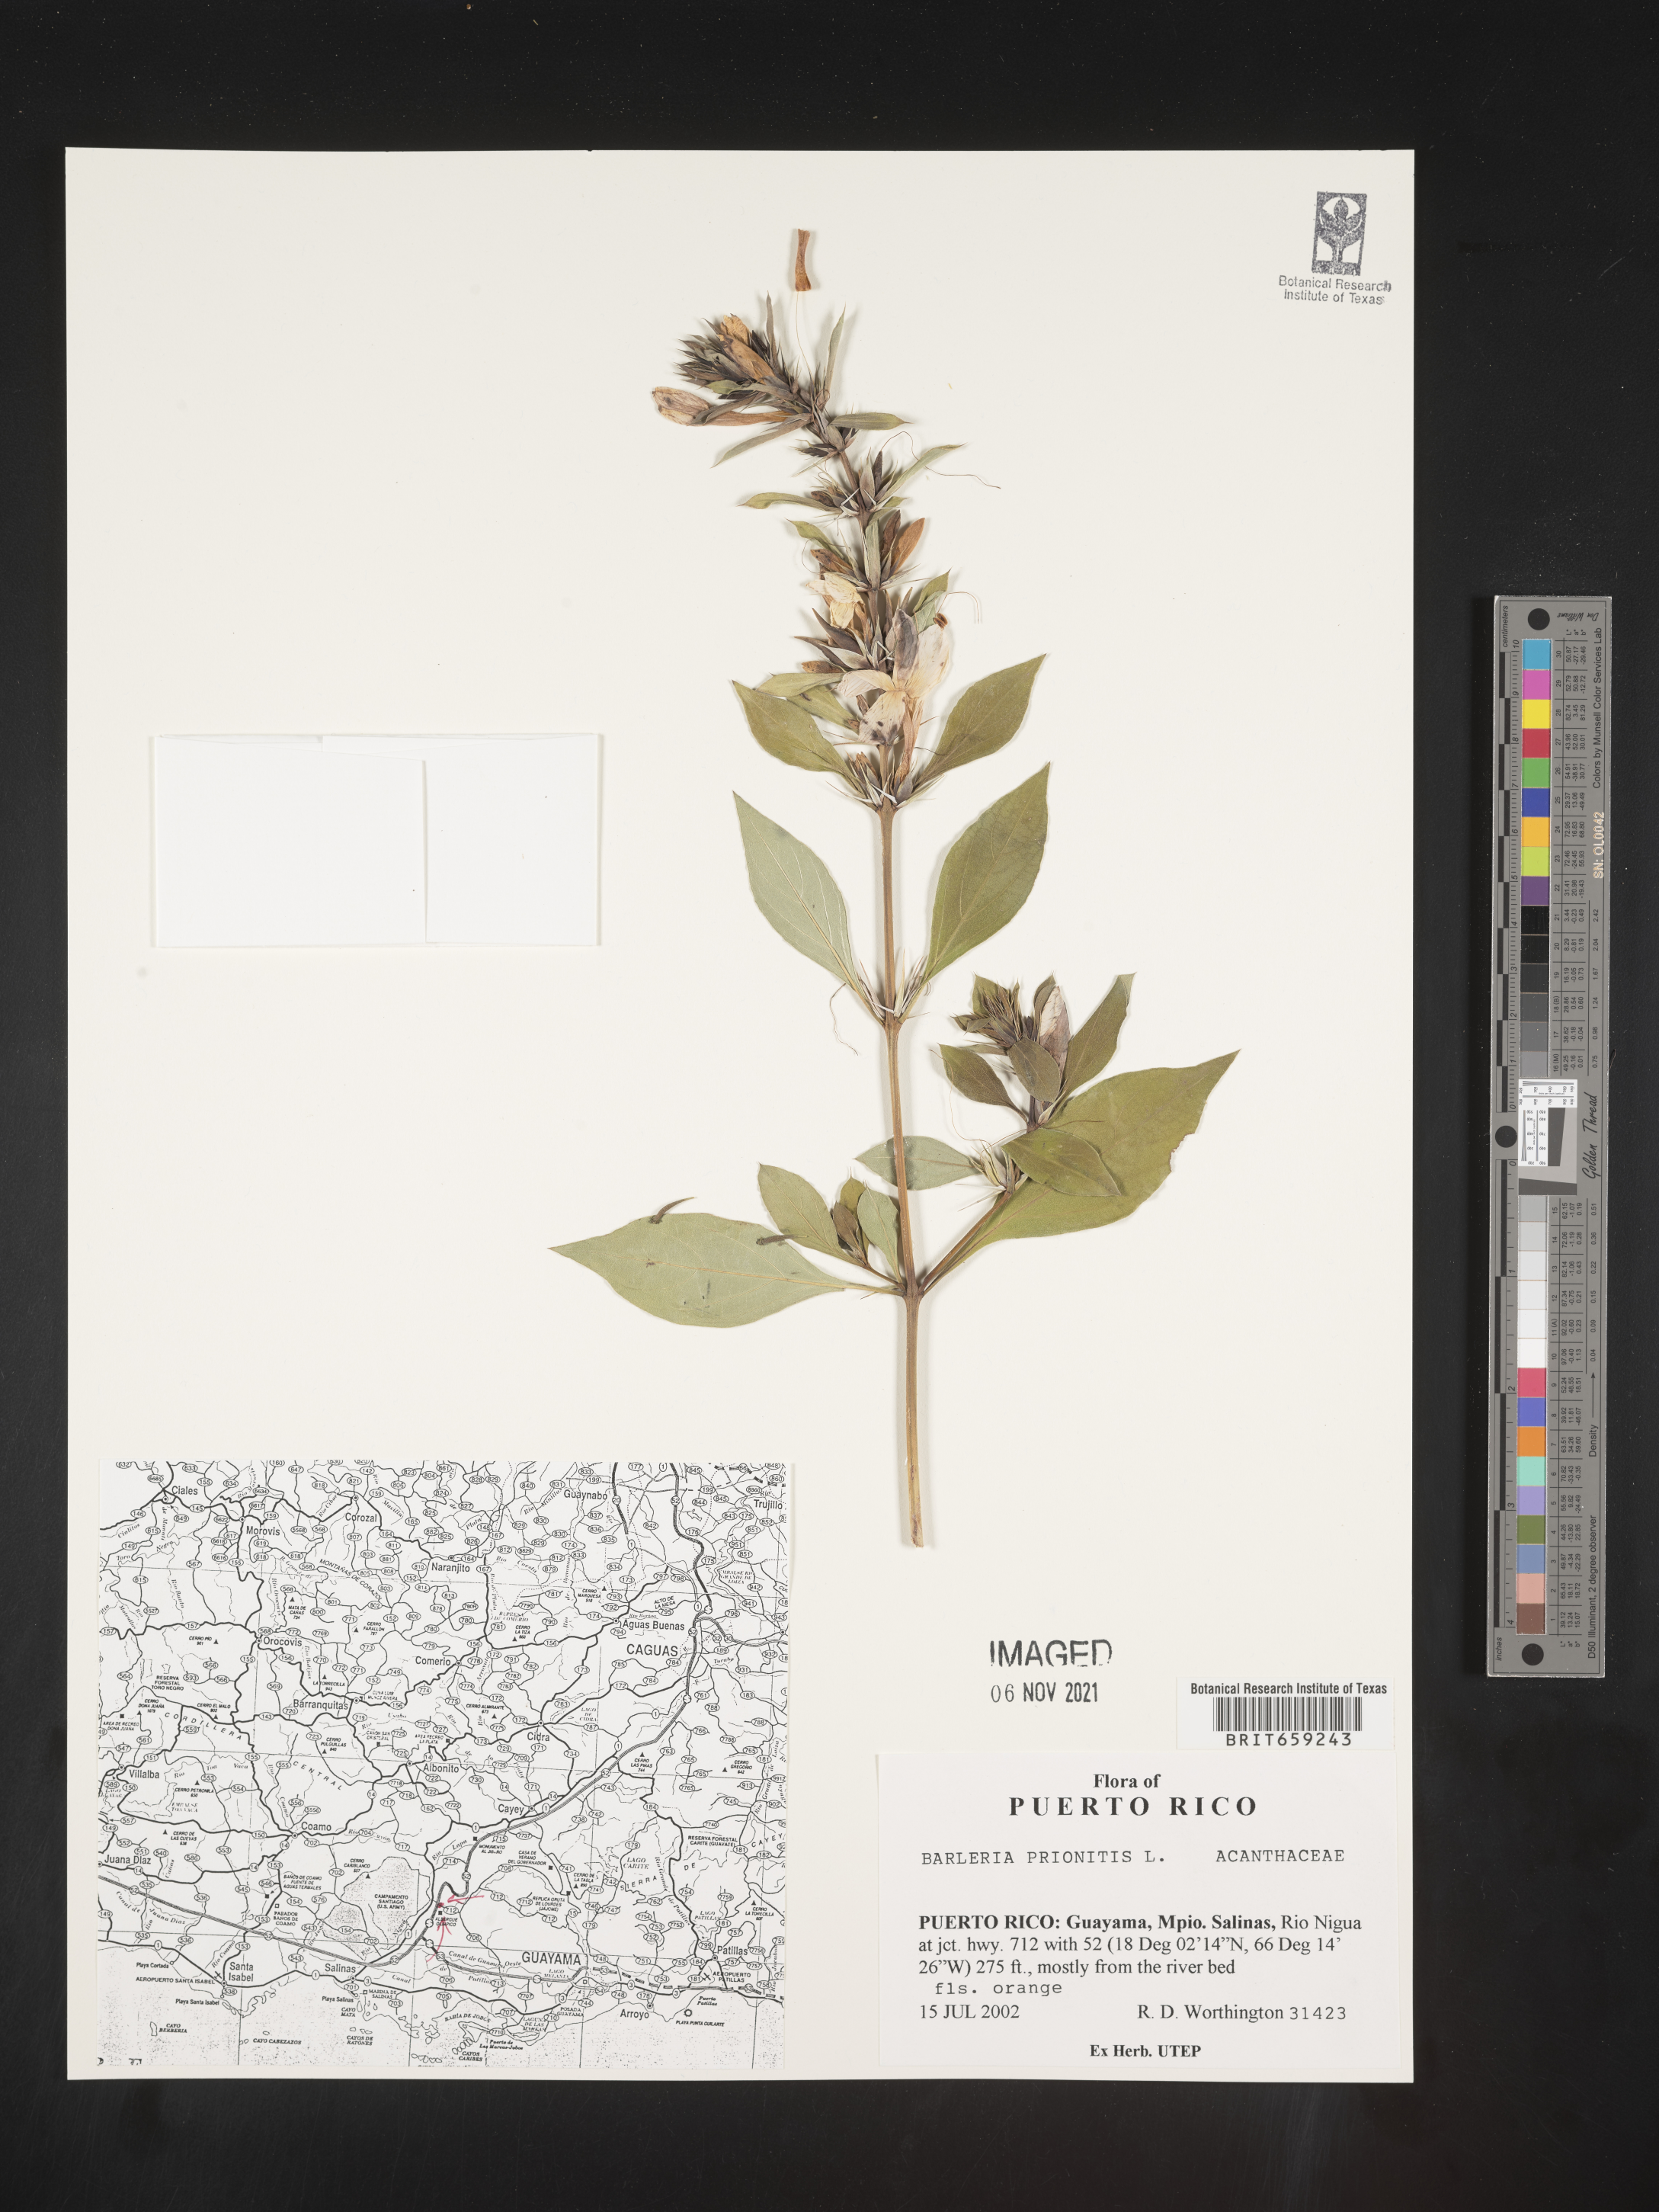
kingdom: Plantae
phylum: Tracheophyta
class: Magnoliopsida
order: Lamiales
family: Acanthaceae
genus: Barleria
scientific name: Barleria
